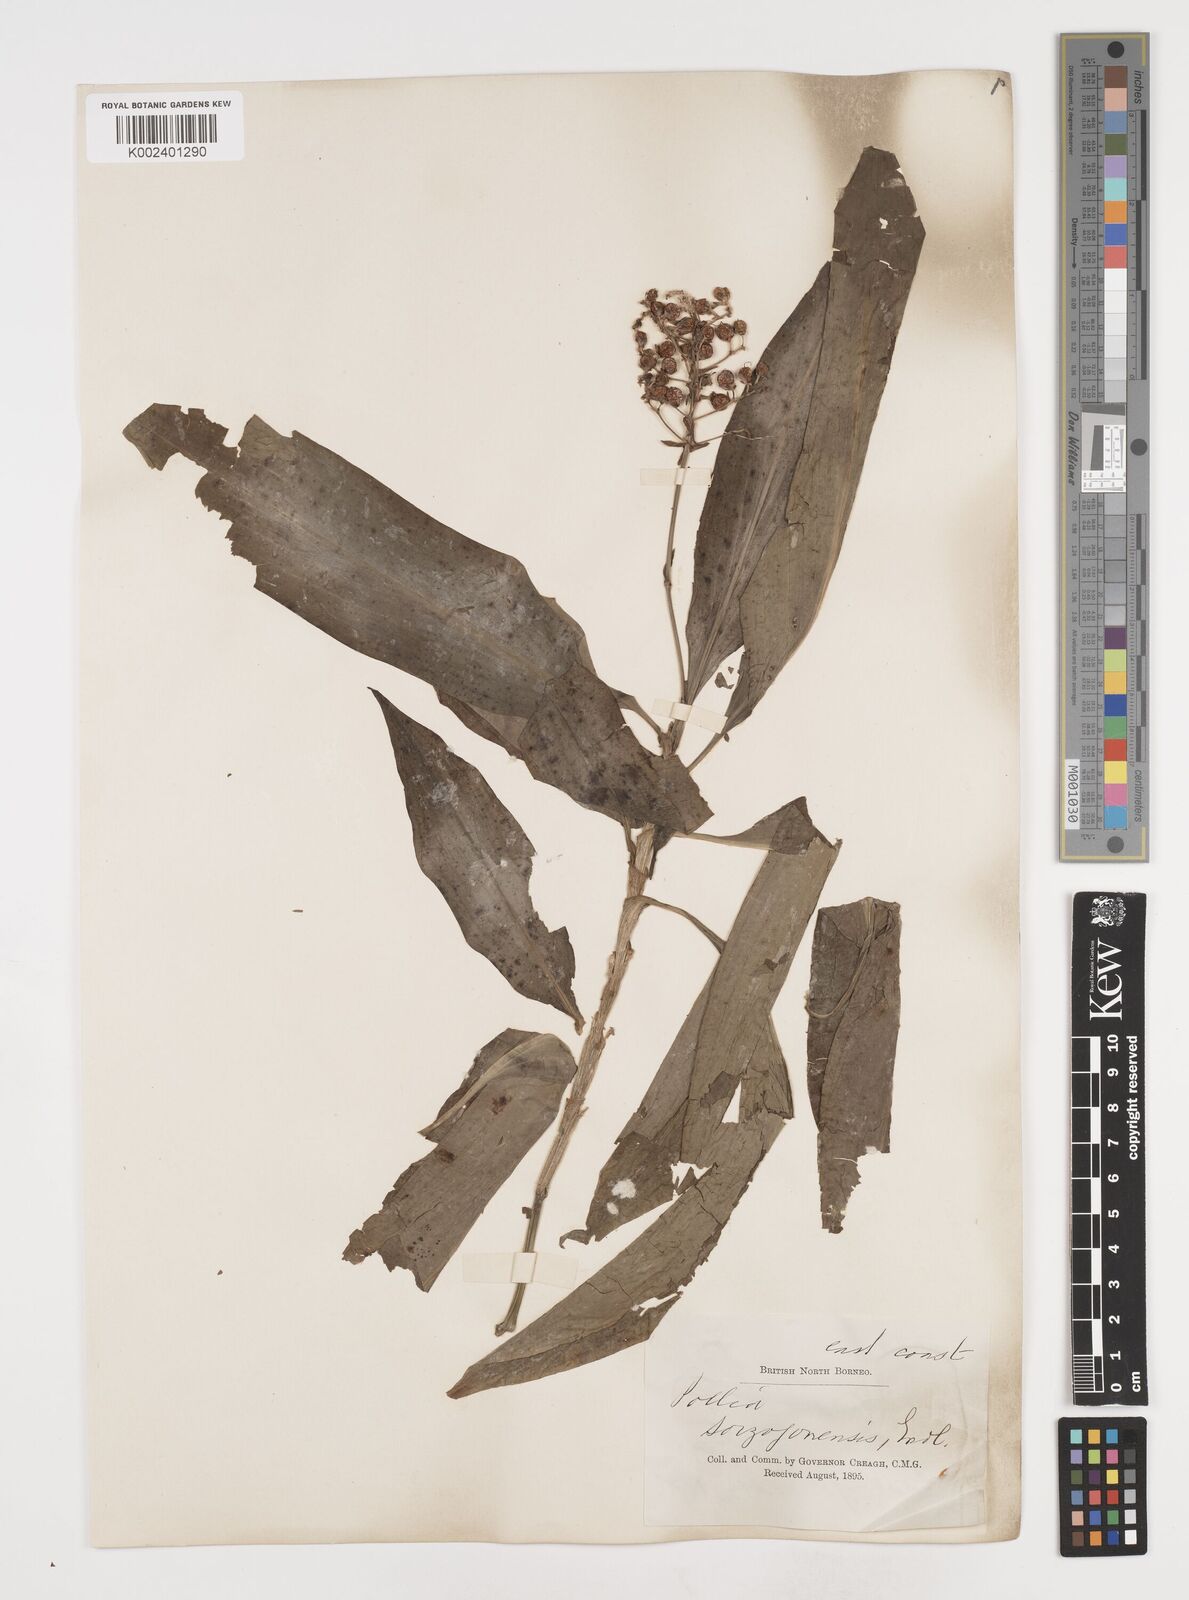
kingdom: Plantae
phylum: Tracheophyta
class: Liliopsida
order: Commelinales
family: Commelinaceae
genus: Pollia
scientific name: Pollia secundiflora
